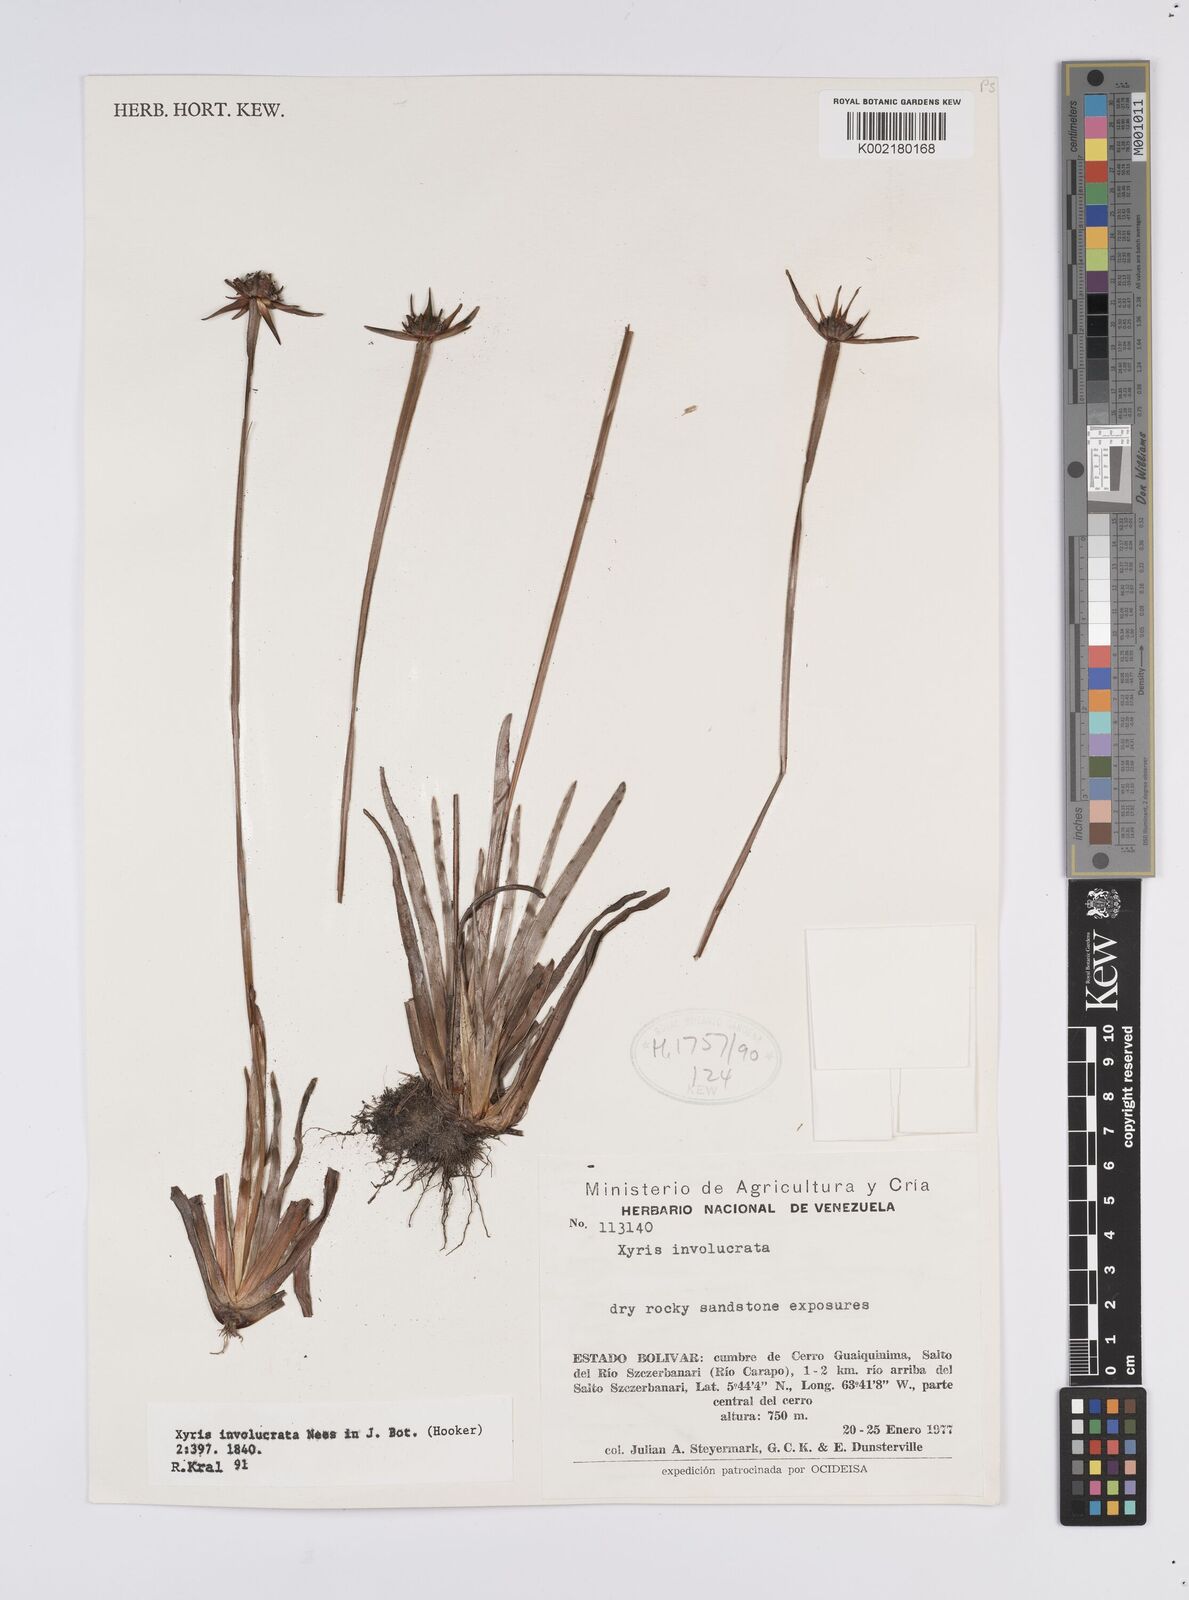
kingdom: Plantae
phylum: Tracheophyta
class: Liliopsida
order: Poales
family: Xyridaceae
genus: Xyris
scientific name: Xyris involucrata
